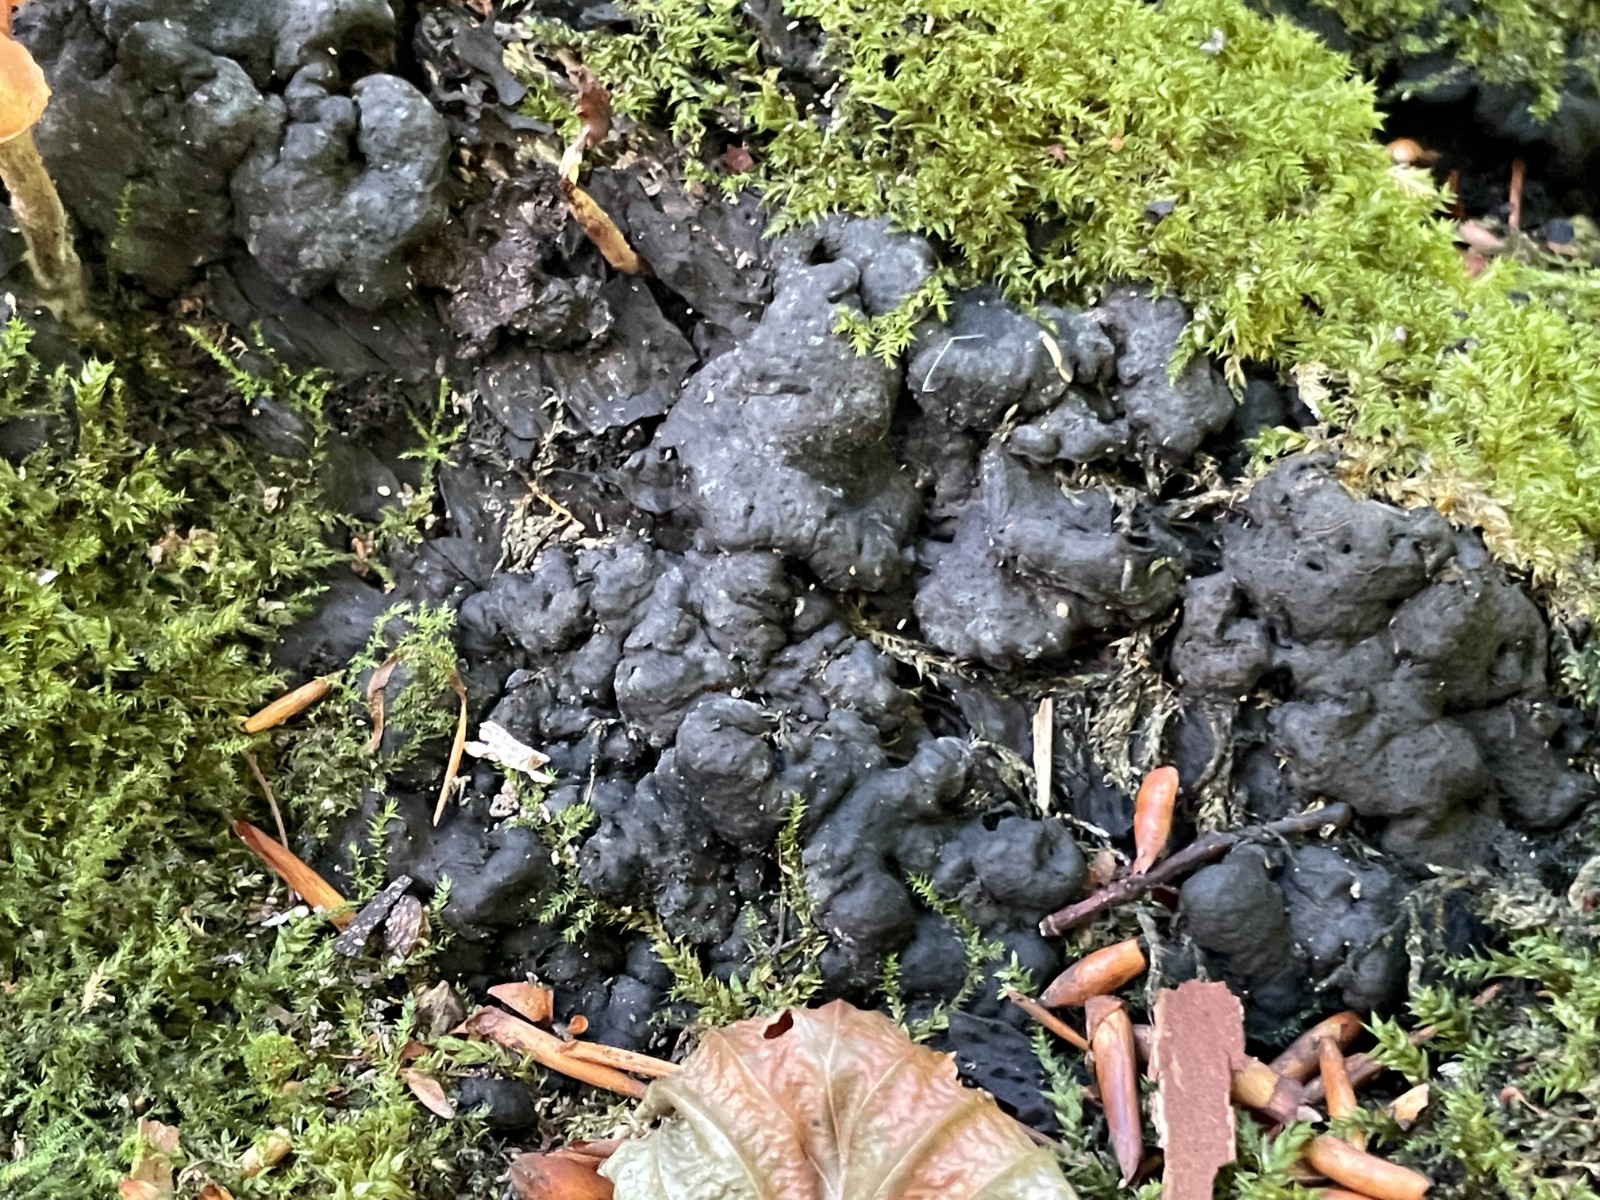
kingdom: Fungi
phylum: Ascomycota
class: Sordariomycetes
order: Xylariales
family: Xylariaceae
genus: Kretzschmaria
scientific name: Kretzschmaria deusta
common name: stor kulsvamp
